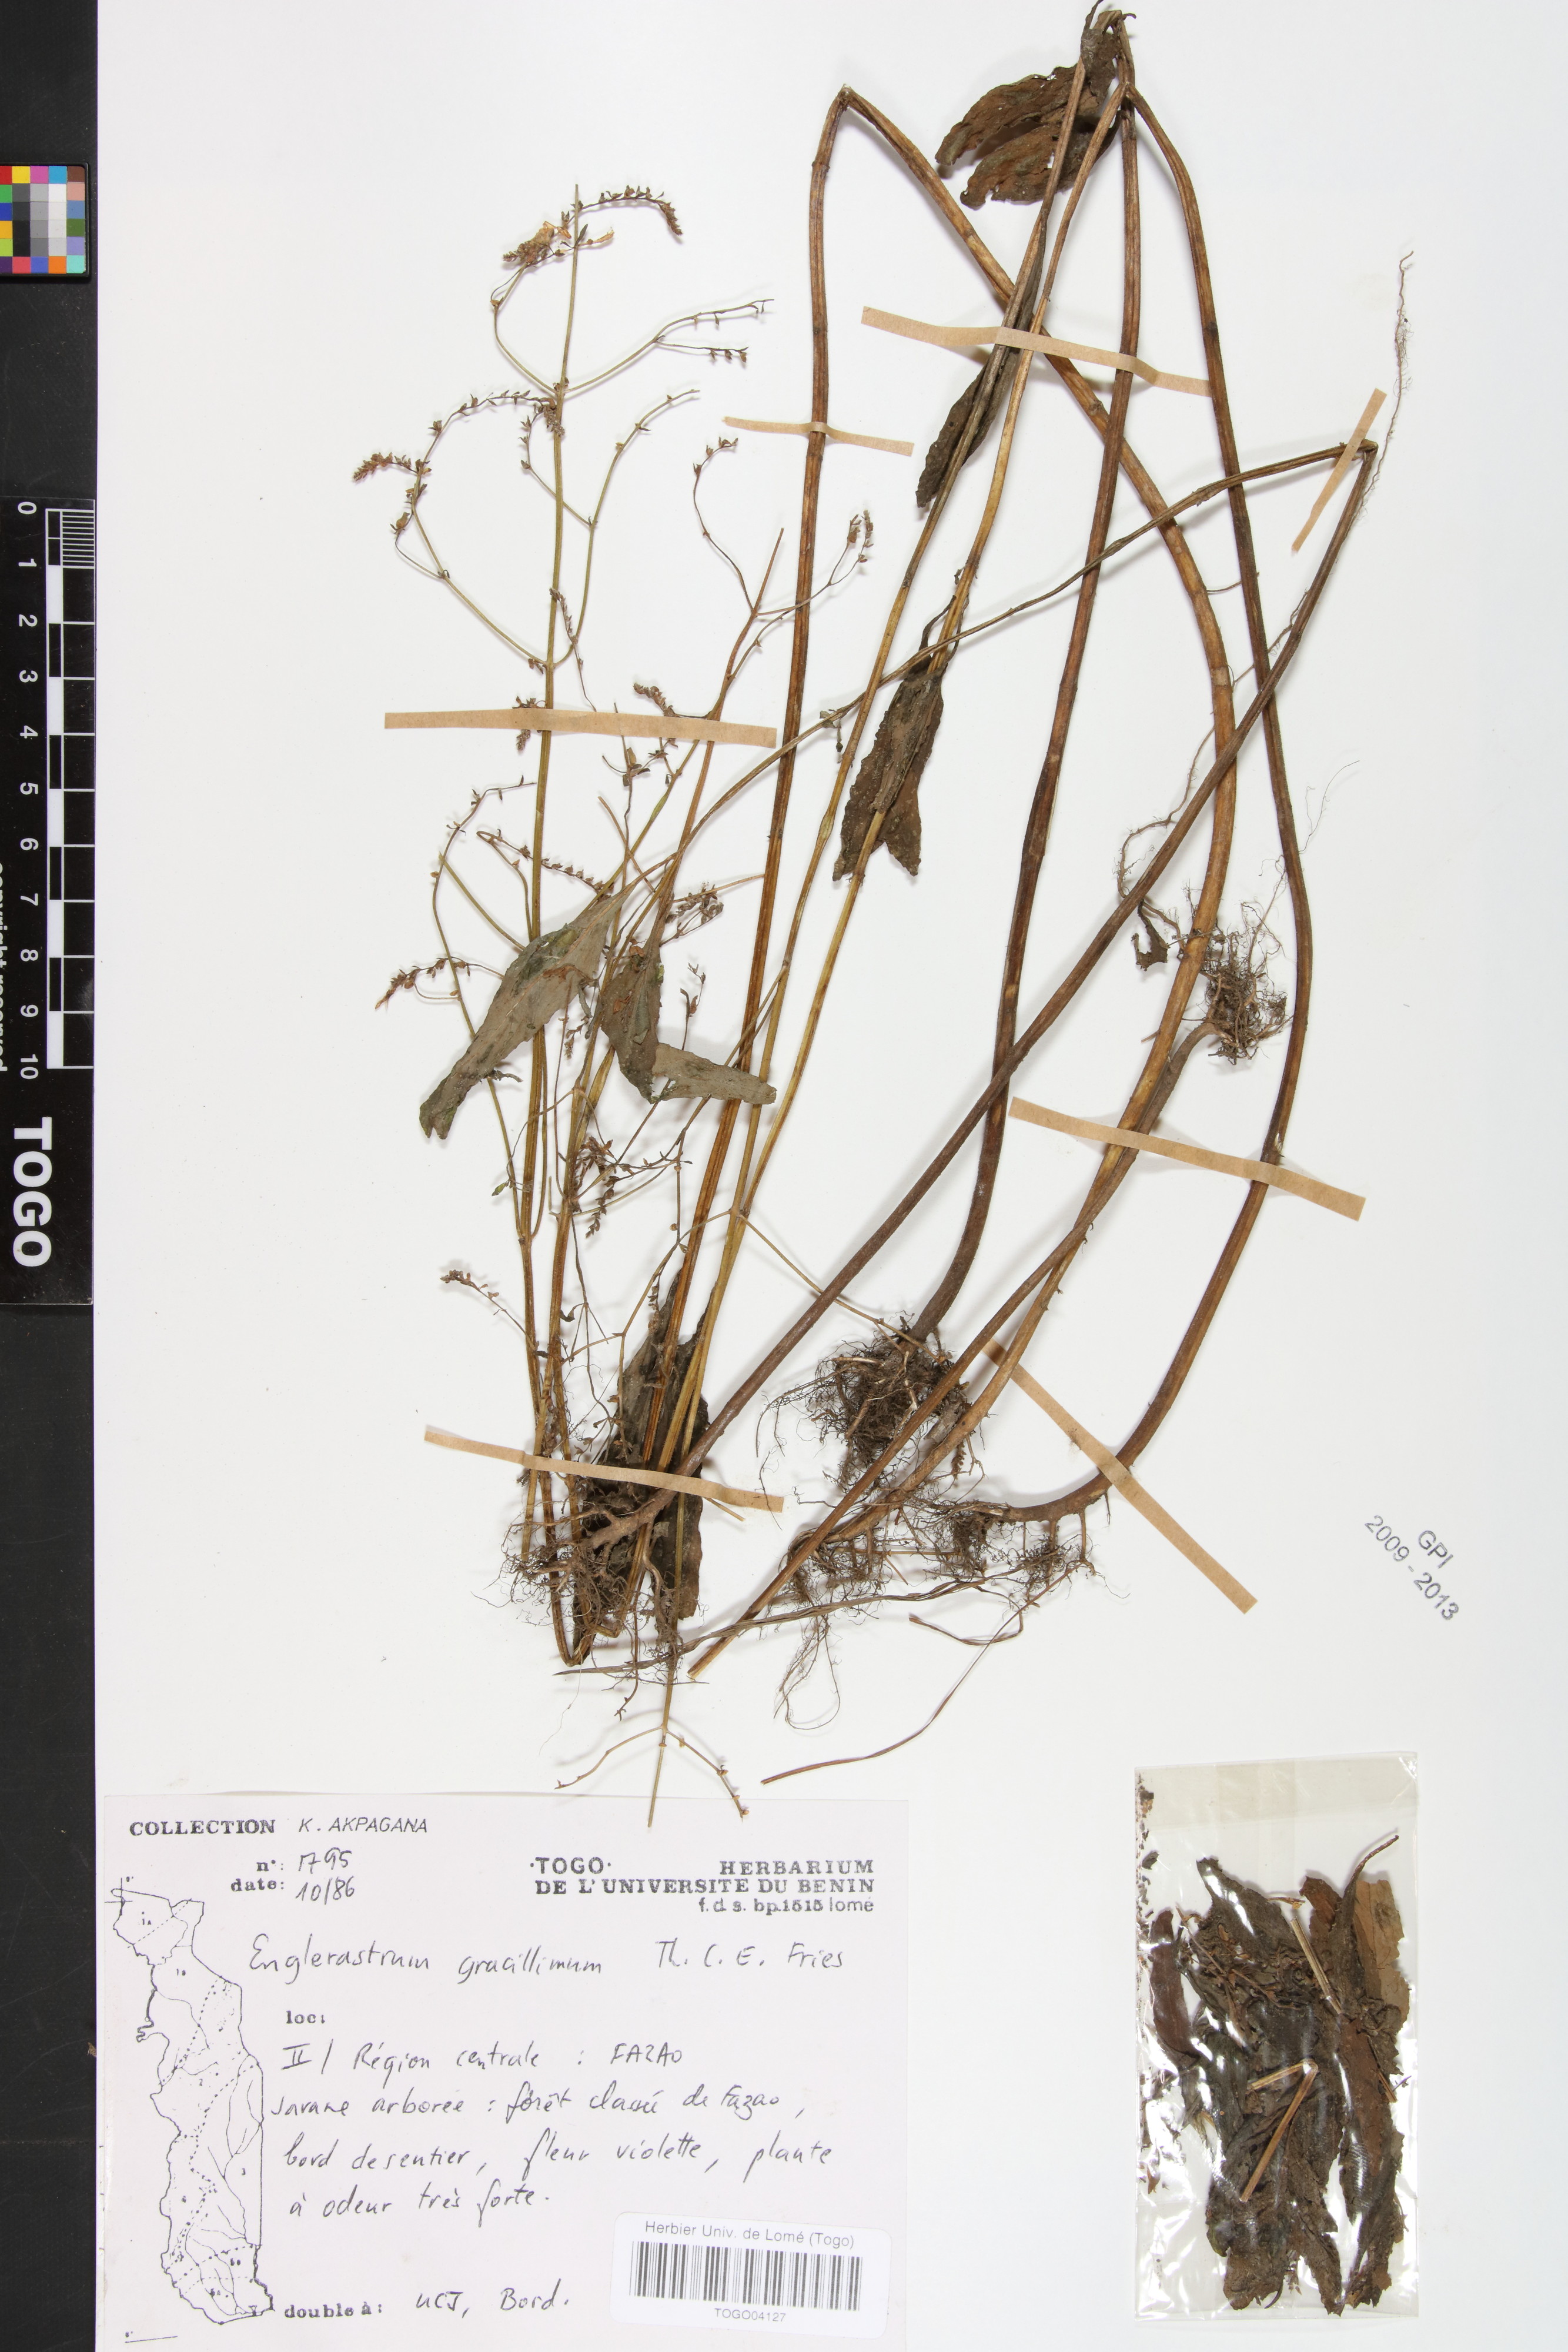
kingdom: Plantae
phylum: Tracheophyta
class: Magnoliopsida
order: Lamiales
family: Lamiaceae
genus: Coleus
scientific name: Coleus gracillimus
